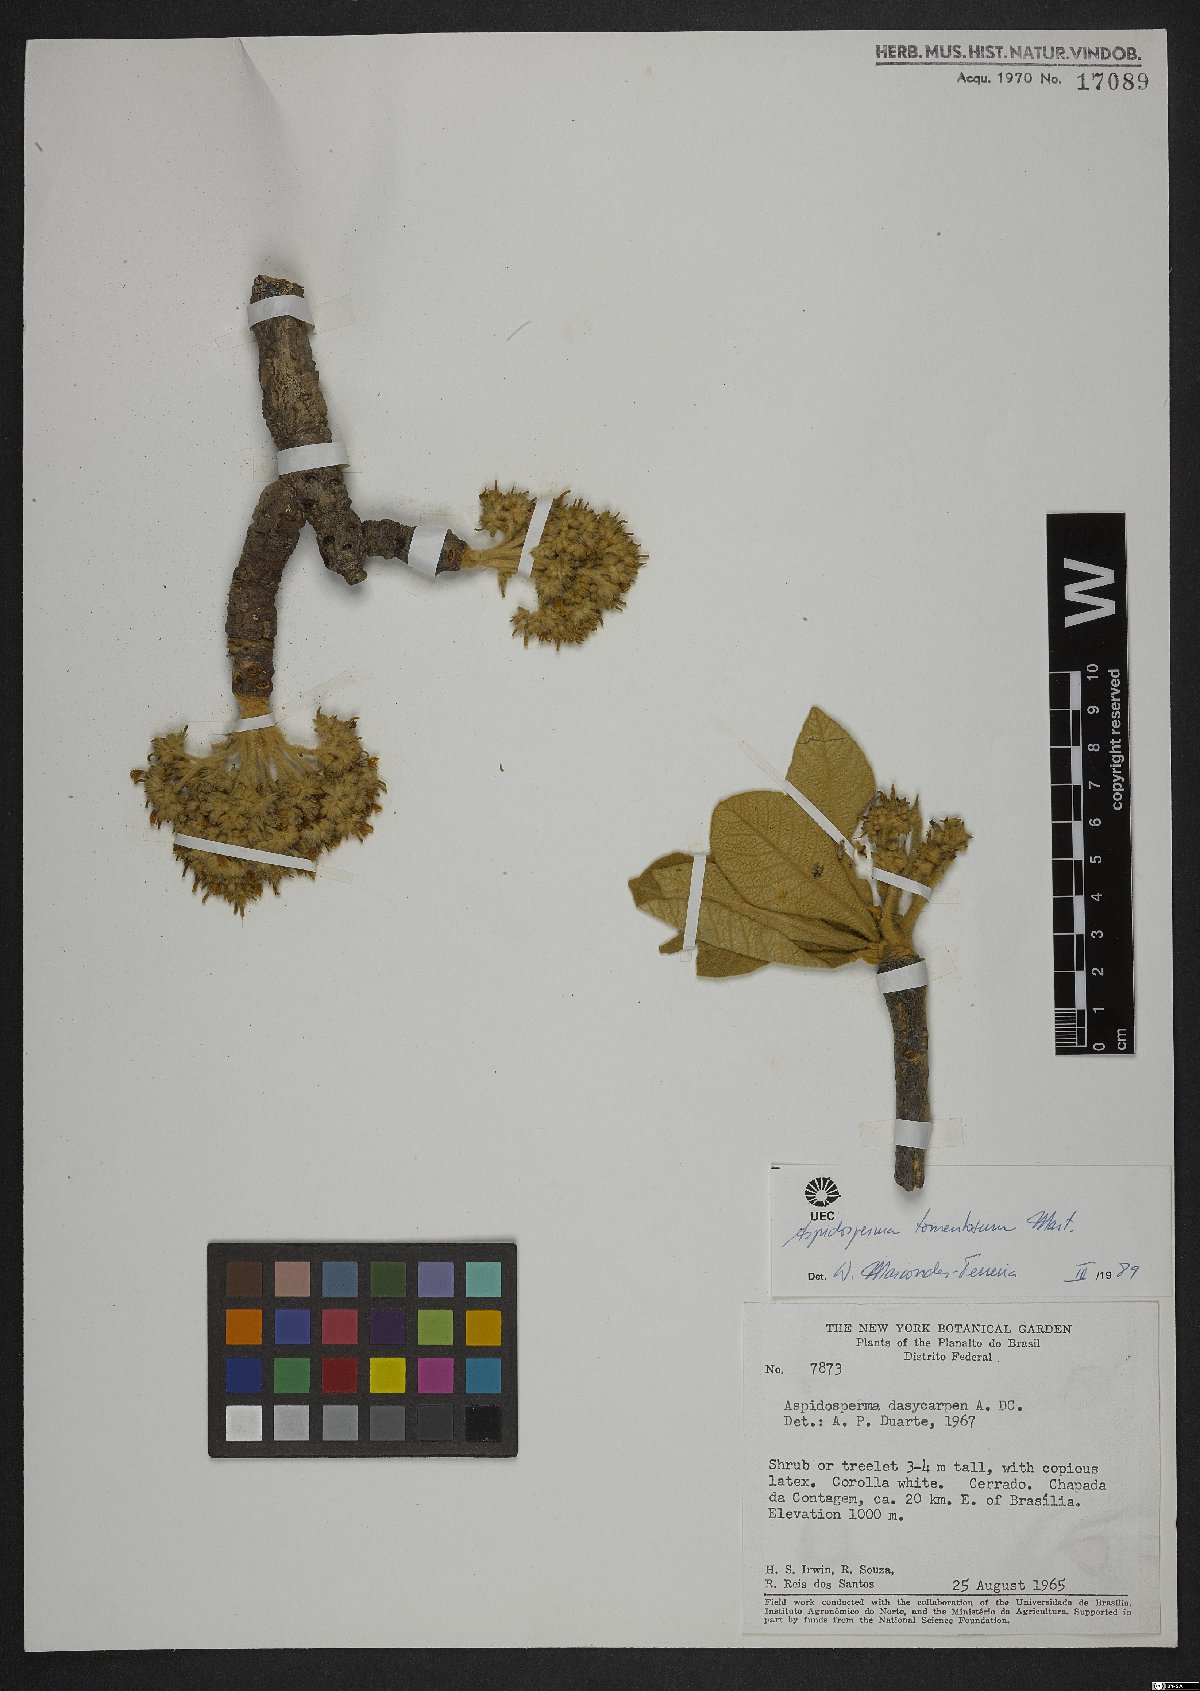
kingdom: Plantae
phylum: Tracheophyta
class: Magnoliopsida
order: Gentianales
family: Apocynaceae
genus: Aspidosperma
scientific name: Aspidosperma tomentosum
